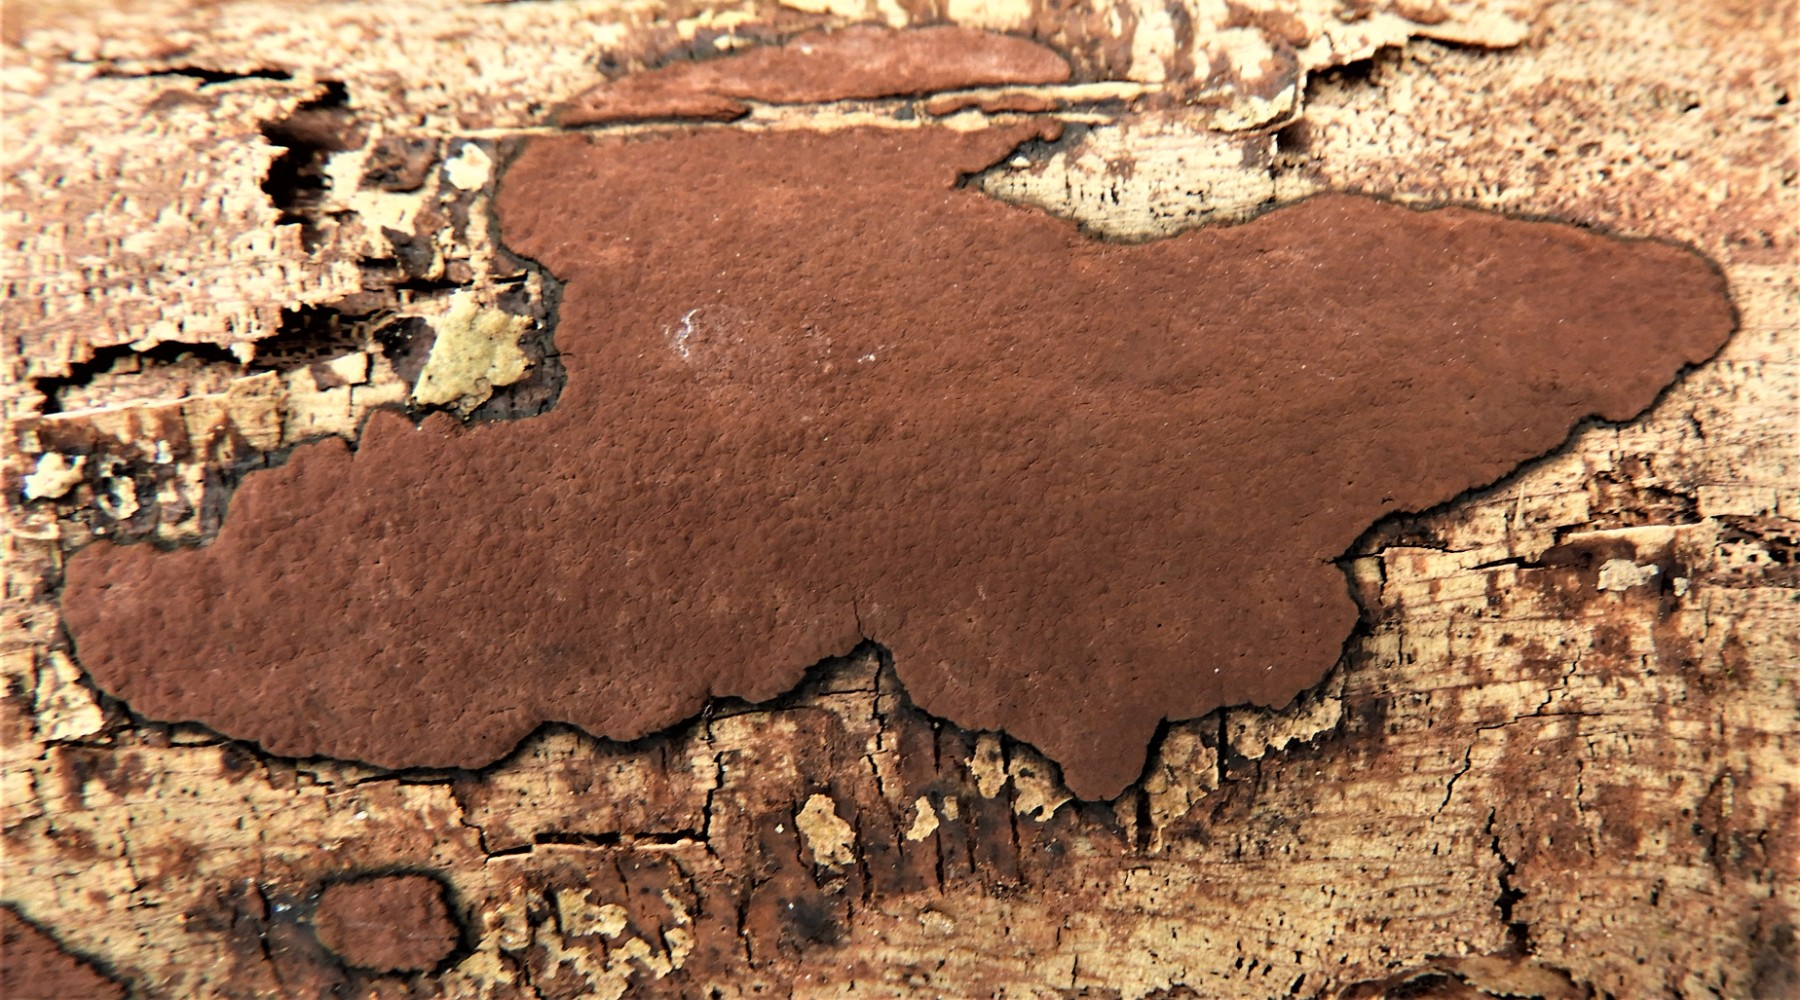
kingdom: Fungi
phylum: Ascomycota
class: Sordariomycetes
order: Xylariales
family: Hypoxylaceae
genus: Hypoxylon
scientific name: Hypoxylon petriniae
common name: nedsænket kulbær
